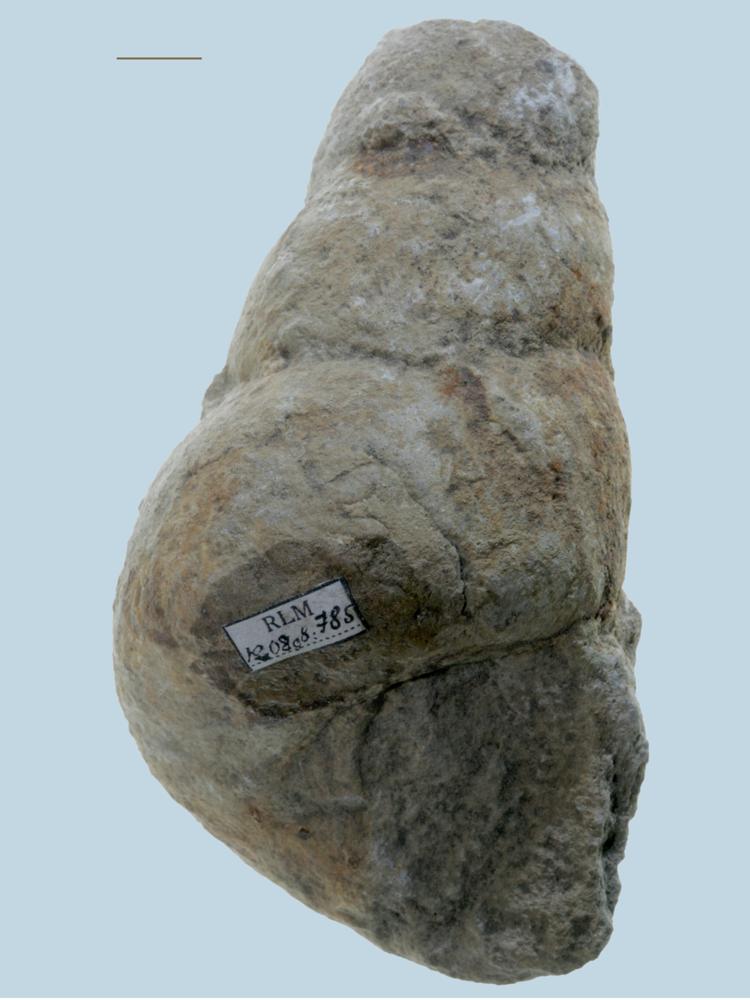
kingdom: Animalia
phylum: Mollusca
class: Gastropoda
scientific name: Gastropoda
